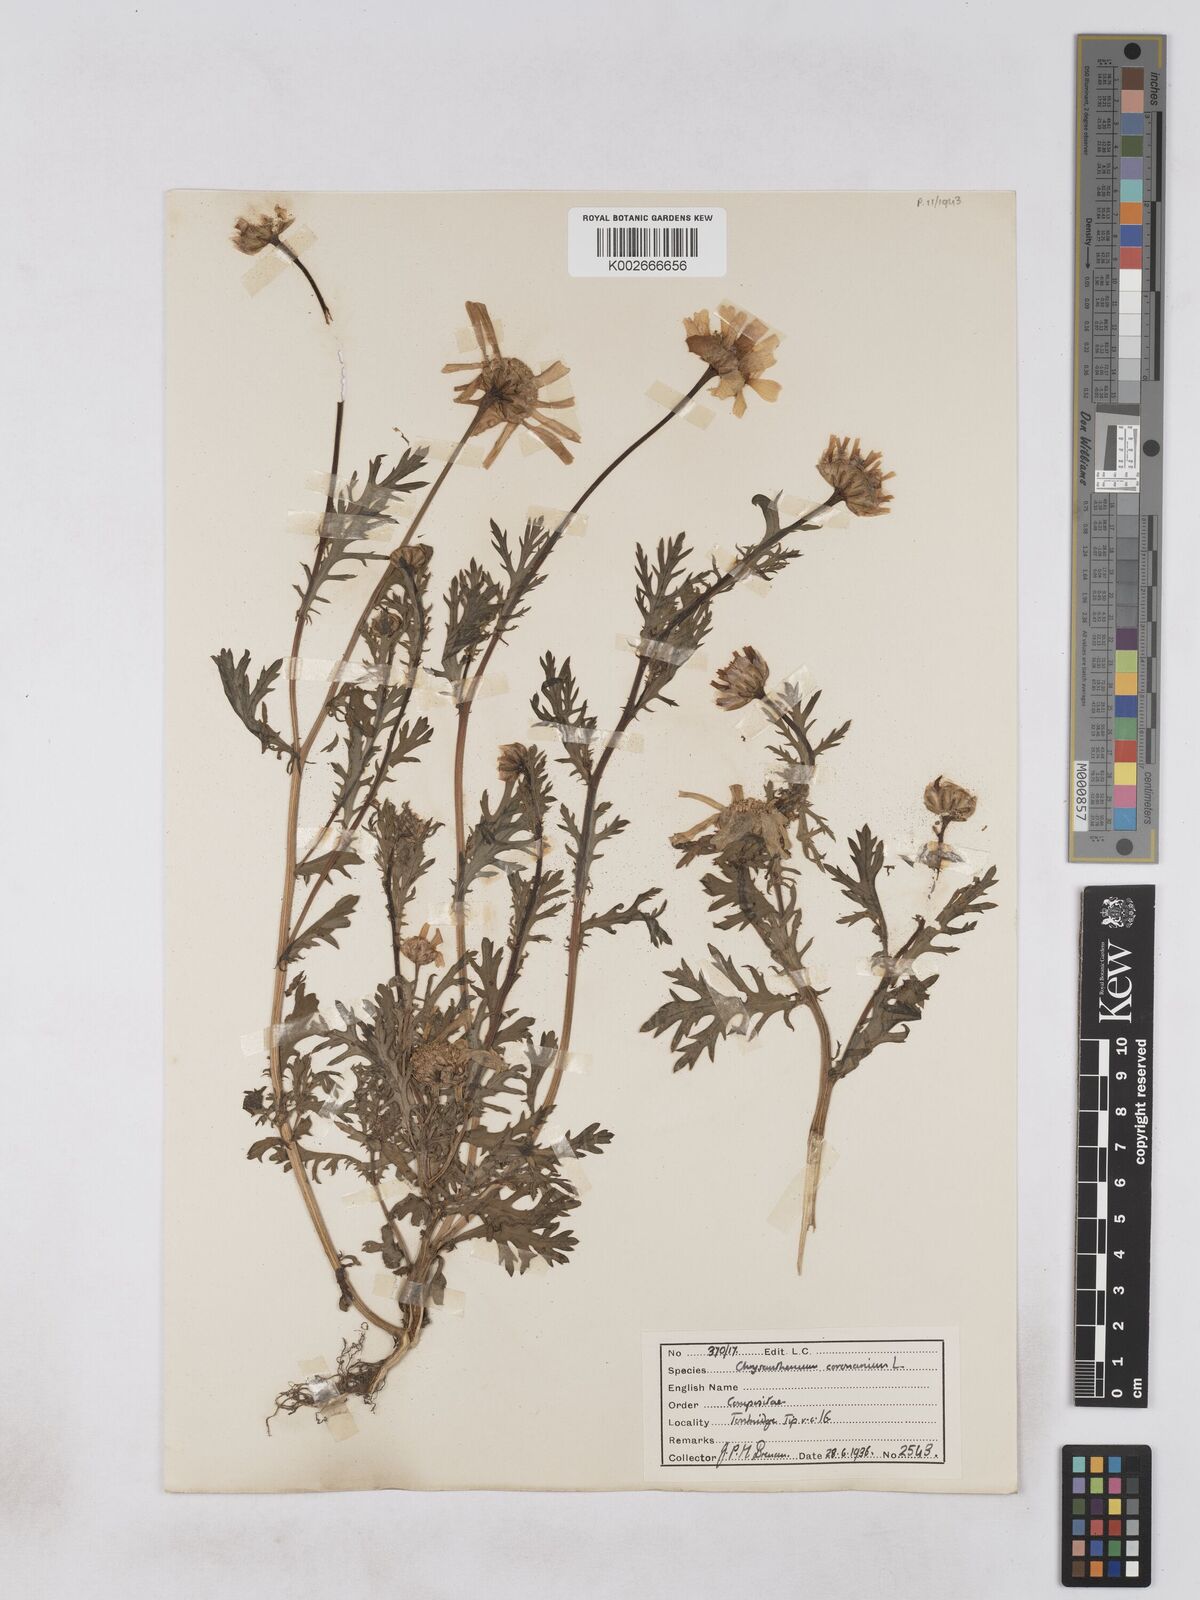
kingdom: Plantae
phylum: Tracheophyta
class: Magnoliopsida
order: Asterales
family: Asteraceae
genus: Glebionis
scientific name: Glebionis coronaria
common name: Crowndaisy
